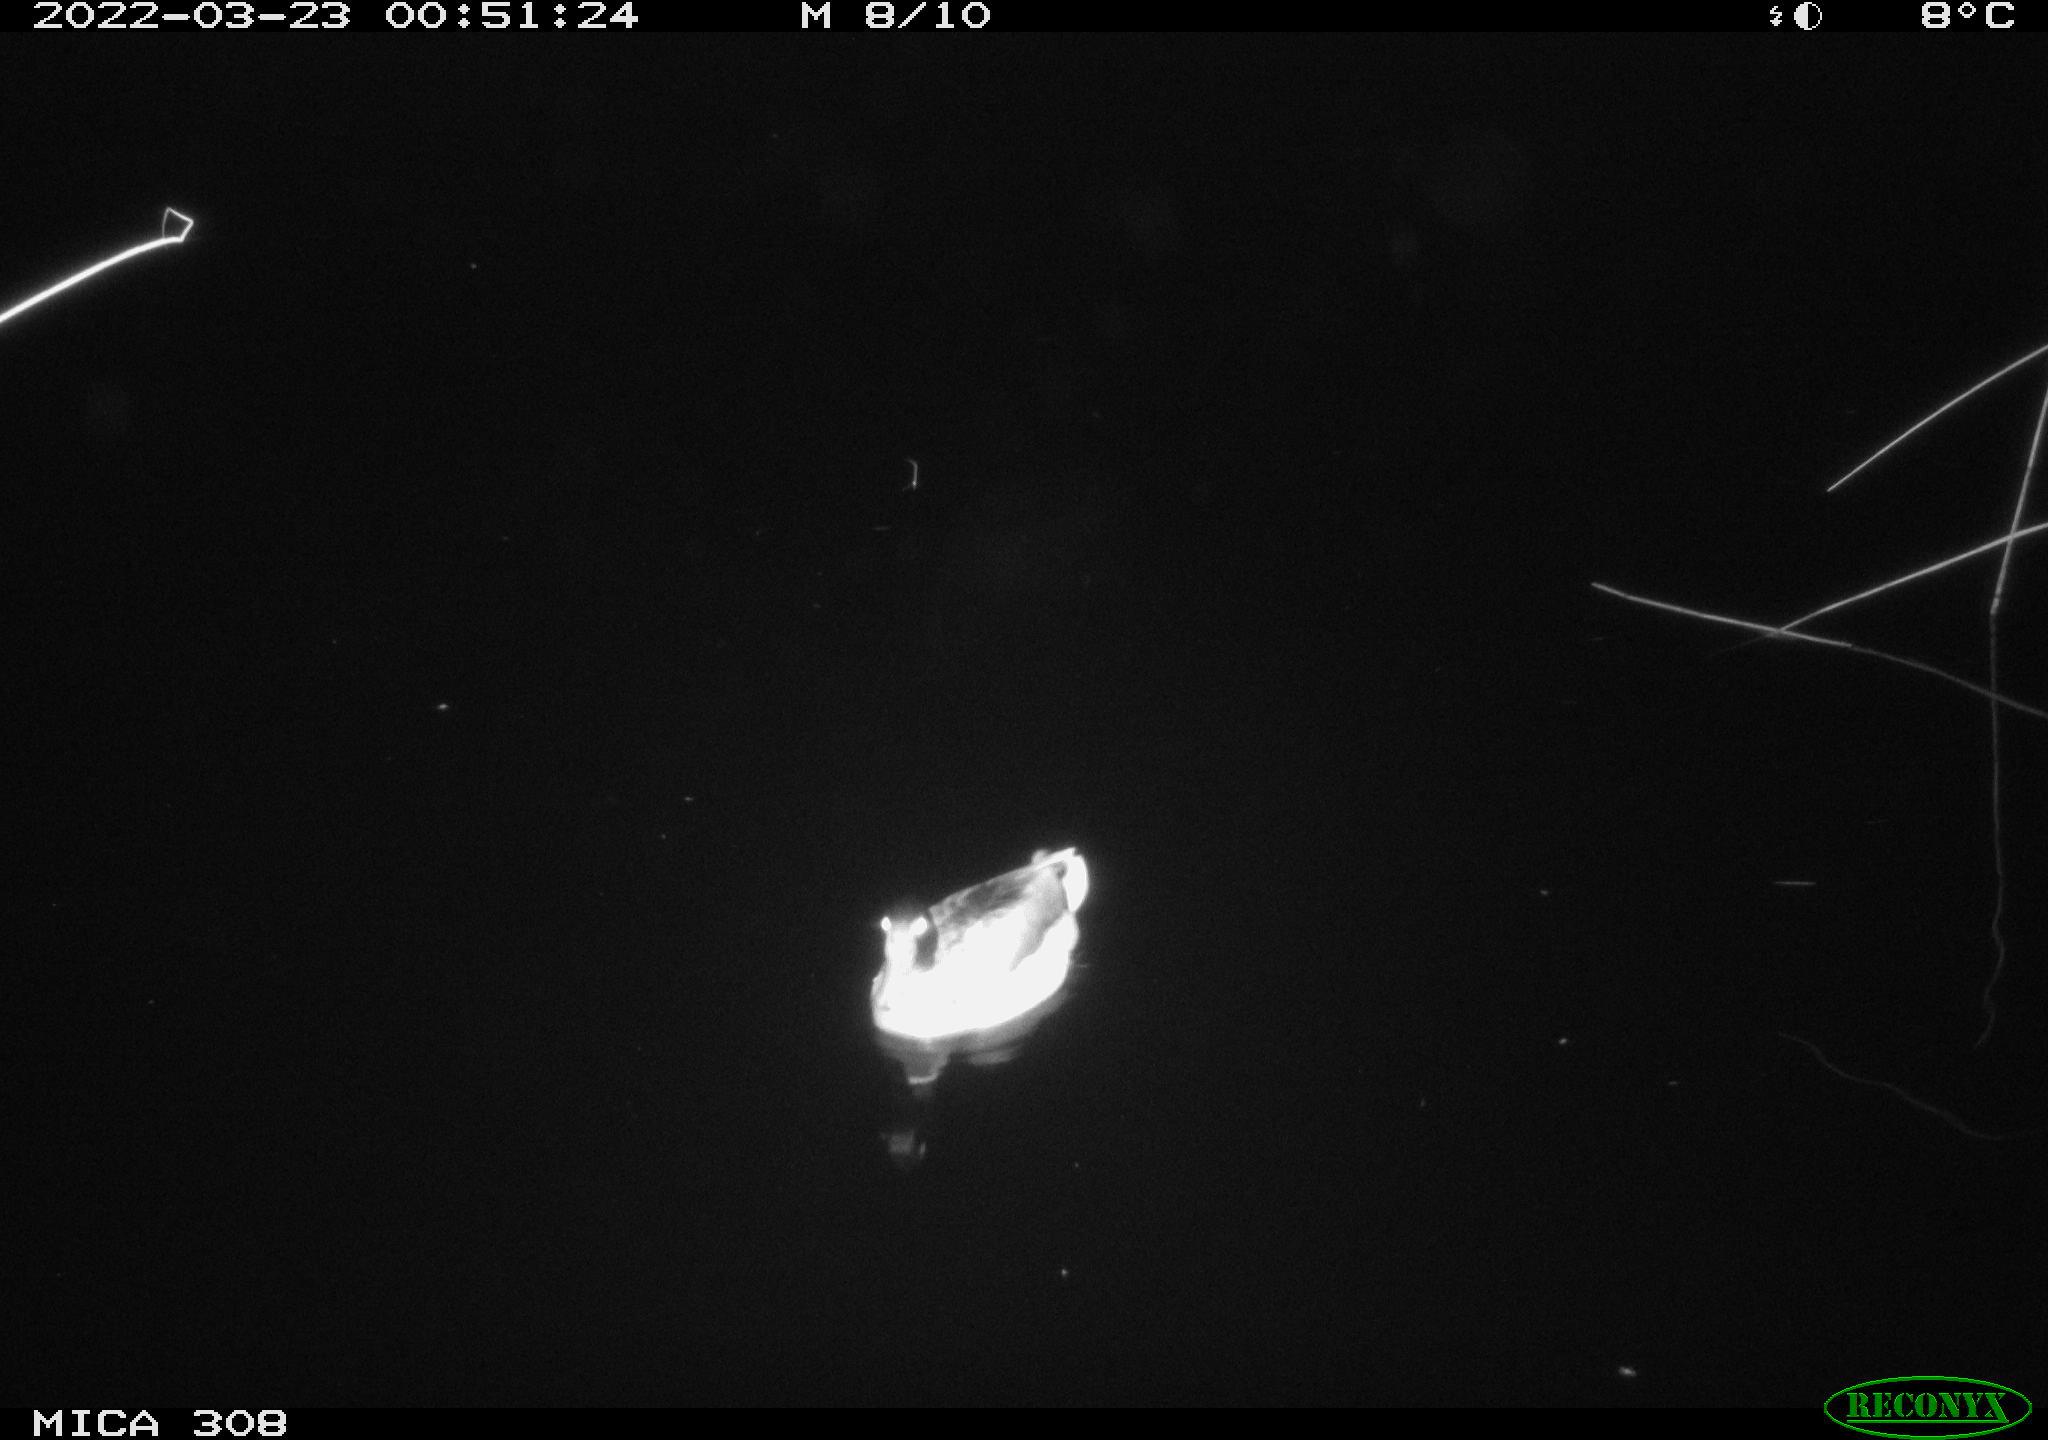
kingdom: Animalia
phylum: Chordata
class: Aves
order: Anseriformes
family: Anatidae
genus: Anas
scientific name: Anas platyrhynchos
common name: Mallard
